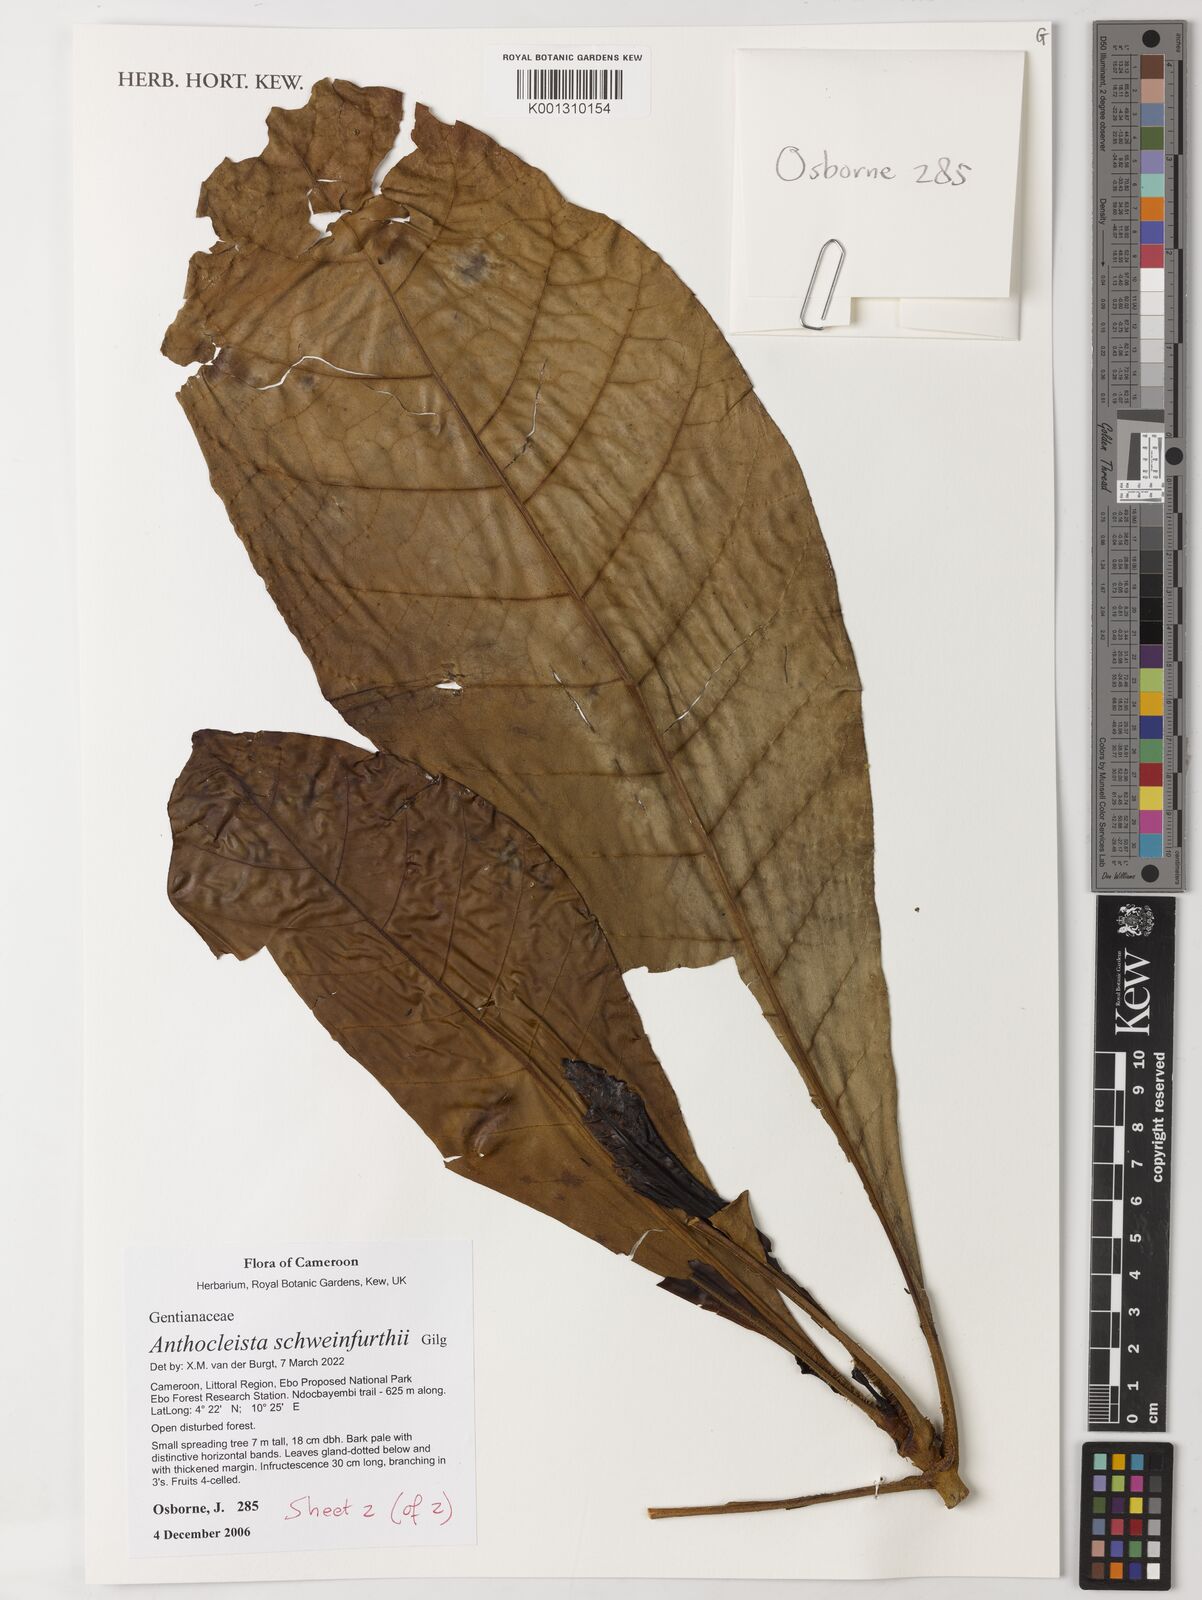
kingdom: Plantae
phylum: Tracheophyta
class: Magnoliopsida
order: Gentianales
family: Gentianaceae
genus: Anthocleista
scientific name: Anthocleista schweinfurthii
